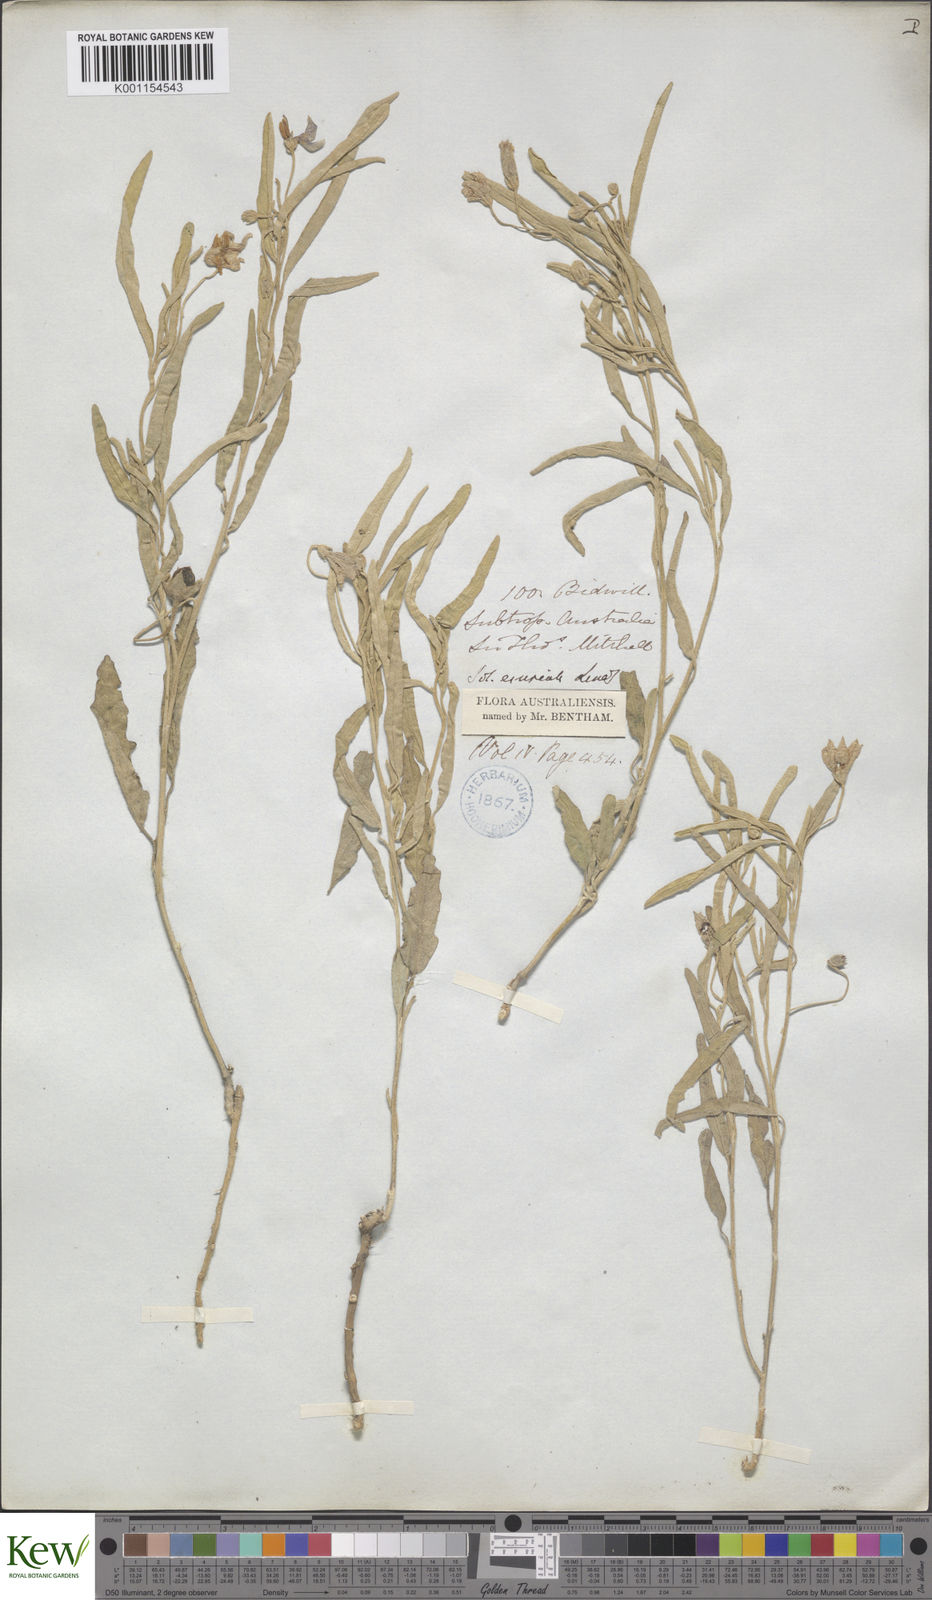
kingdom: Plantae
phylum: Tracheophyta
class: Magnoliopsida
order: Solanales
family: Solanaceae
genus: Solanum
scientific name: Solanum esuriale
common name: Wild tomato
